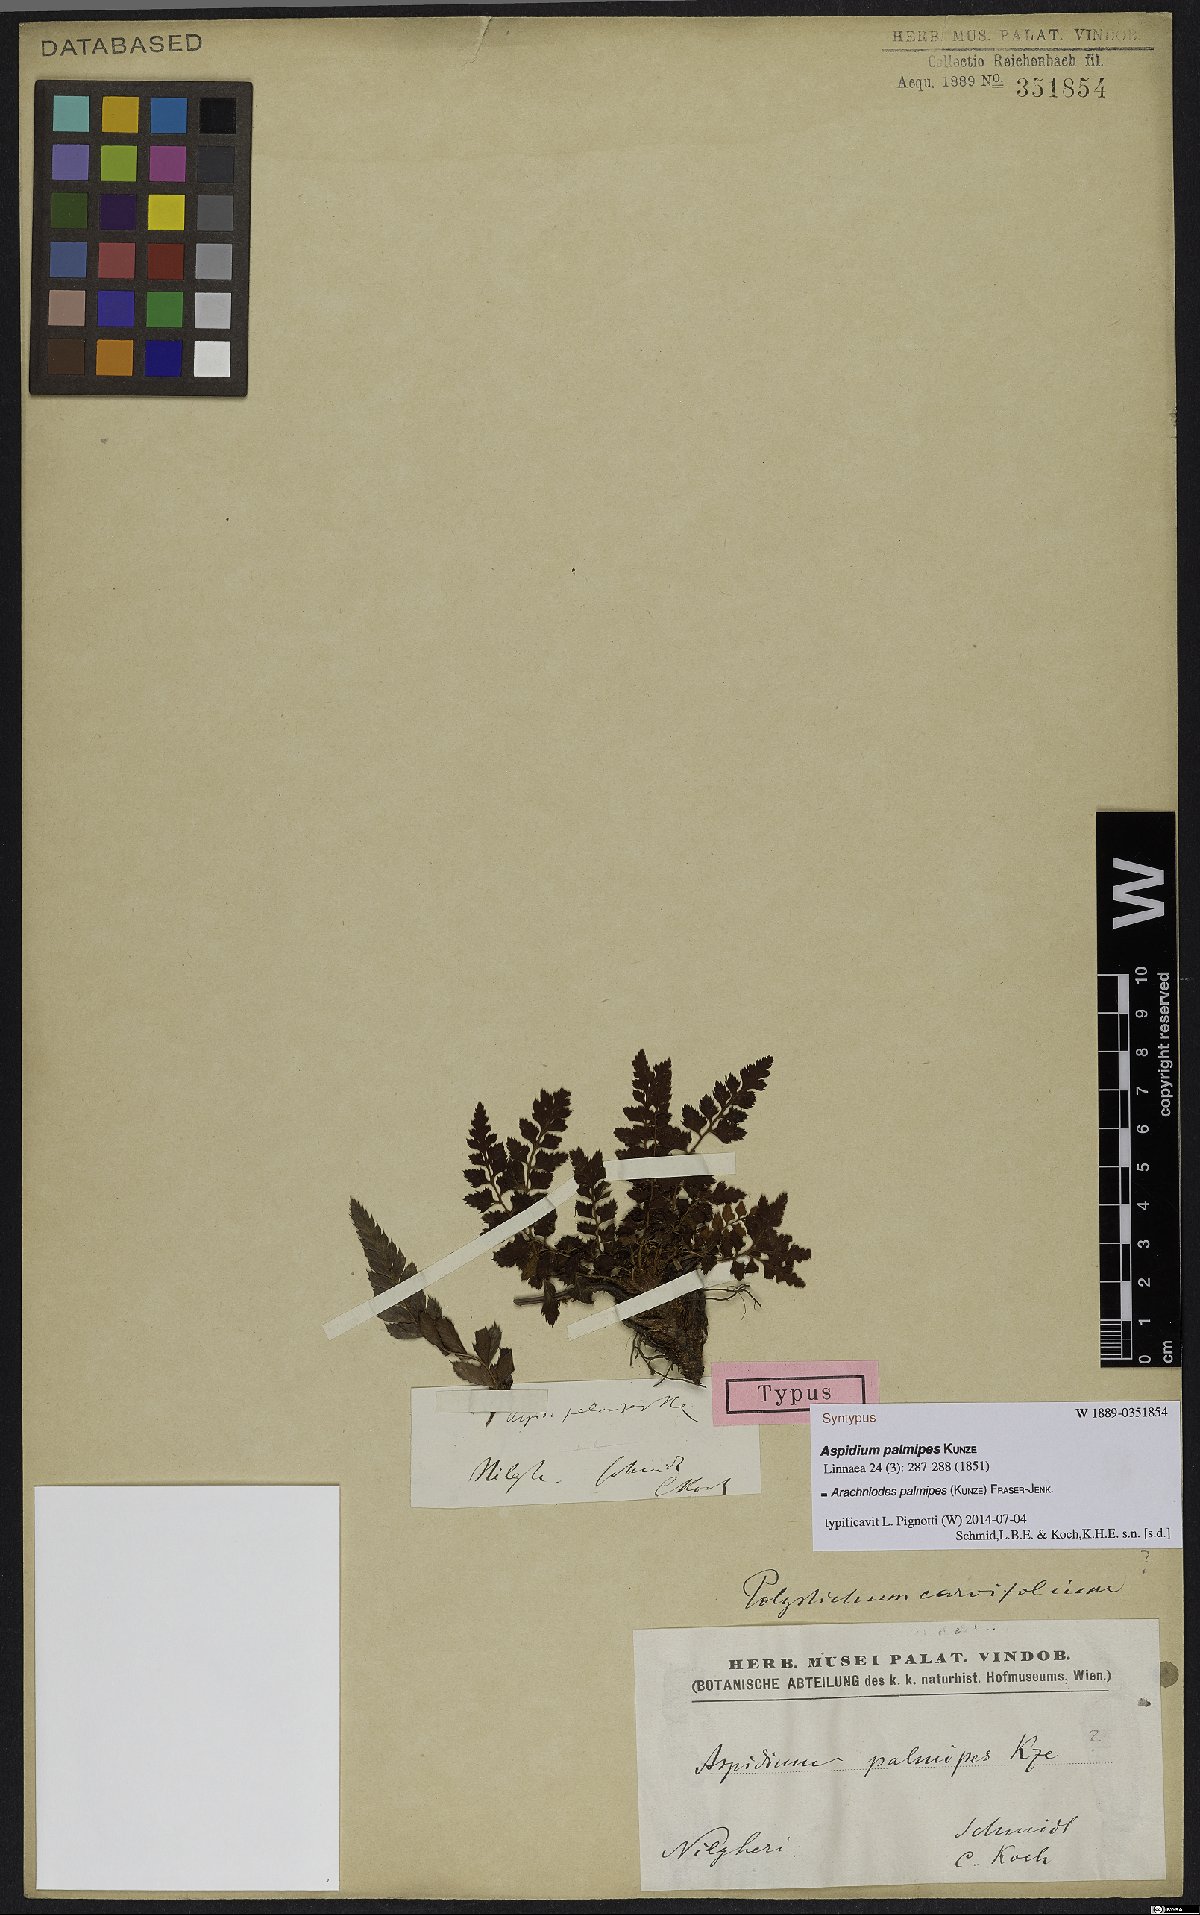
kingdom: Plantae
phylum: Tracheophyta
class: Polypodiopsida
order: Polypodiales
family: Dryopteridaceae
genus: Arachniodes
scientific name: Arachniodes palmipes
